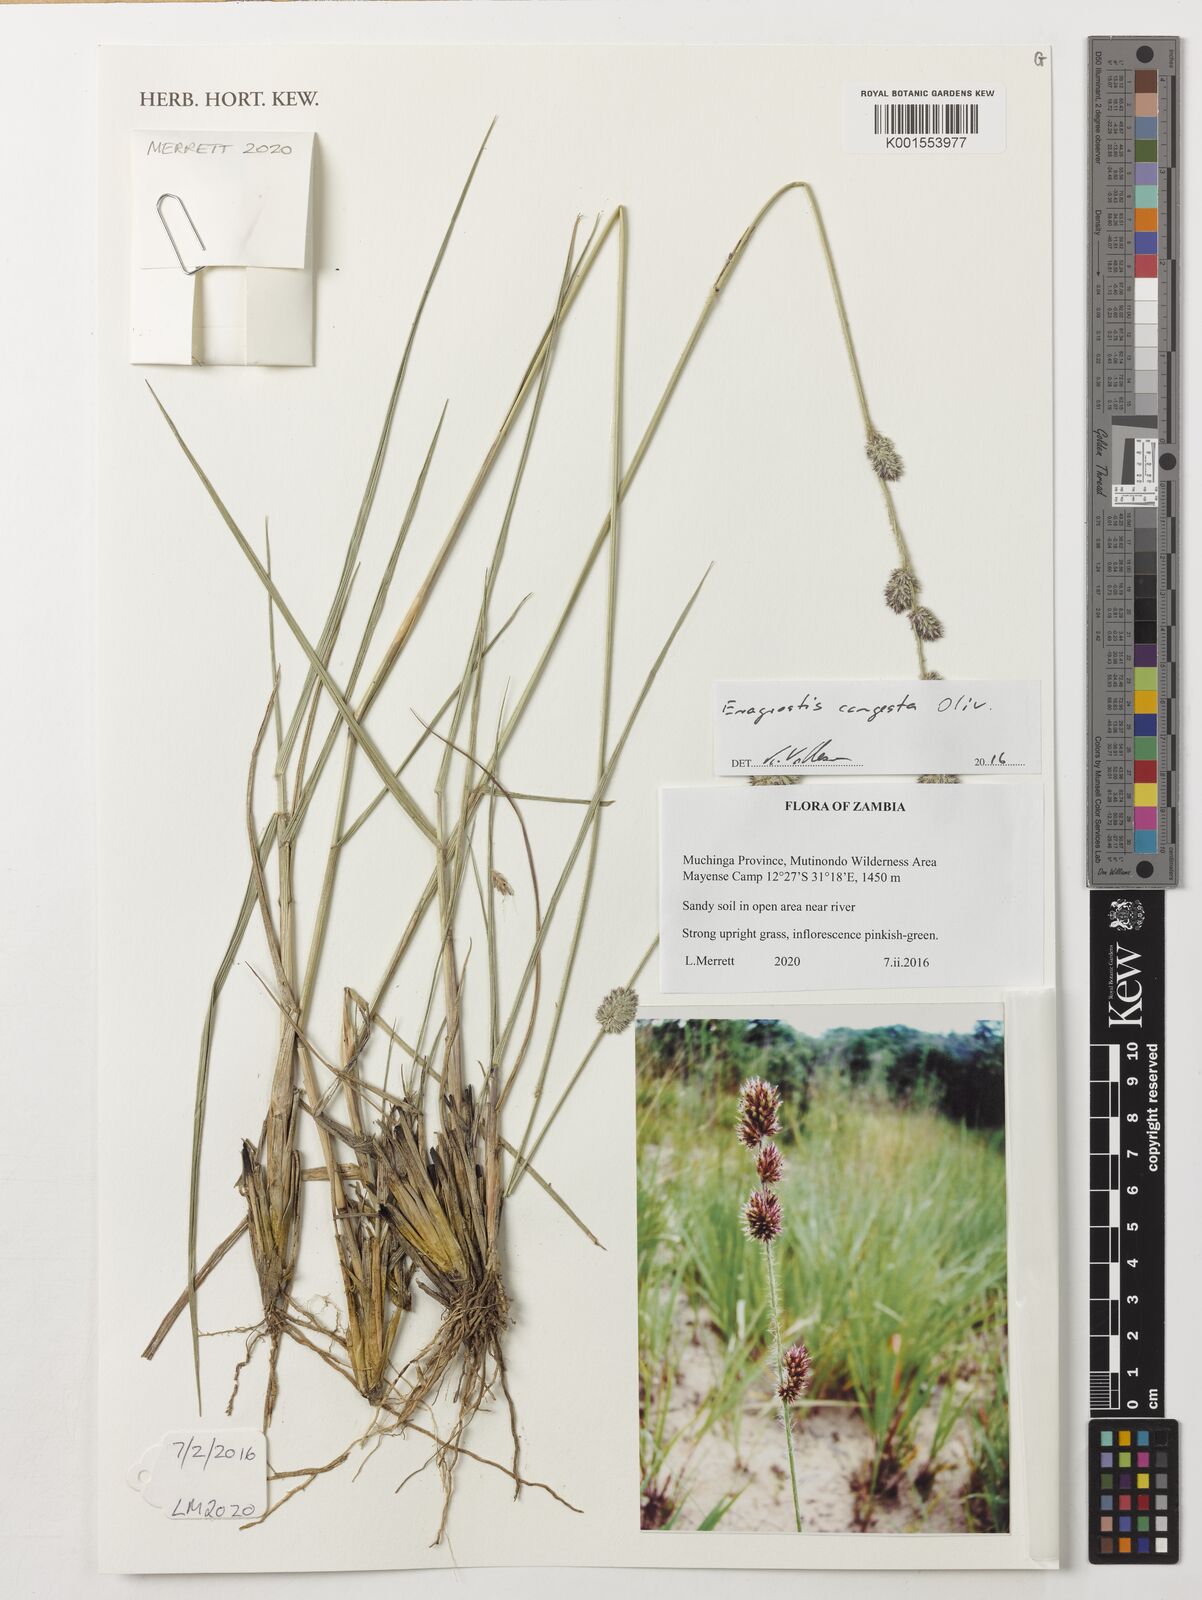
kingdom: Plantae
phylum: Tracheophyta
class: Liliopsida
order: Poales
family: Poaceae
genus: Eragrostis
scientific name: Eragrostis congesta
